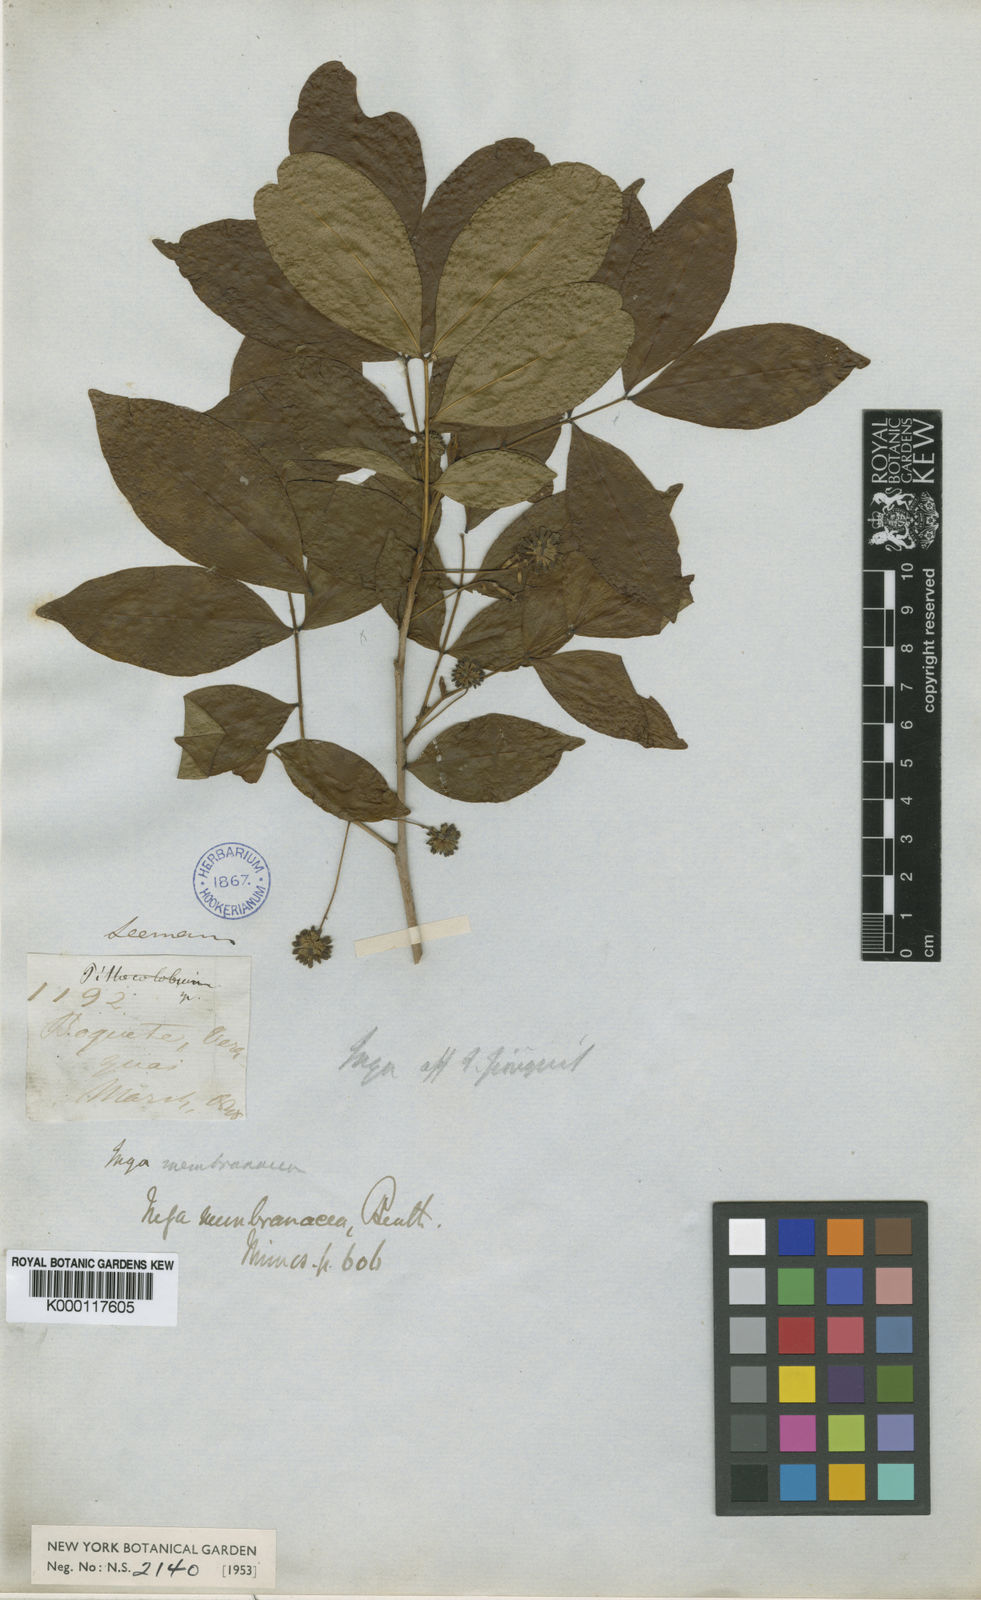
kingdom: Plantae
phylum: Tracheophyta
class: Magnoliopsida
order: Fabales
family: Fabaceae
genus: Cojoba
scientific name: Cojoba rufescens
